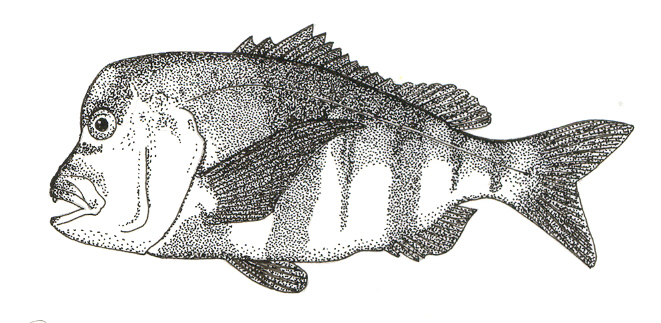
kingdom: Animalia
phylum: Chordata
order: Perciformes
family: Sparidae
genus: Chrysoblephus
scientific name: Chrysoblephus gibbiceps
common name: Red stumpnose
